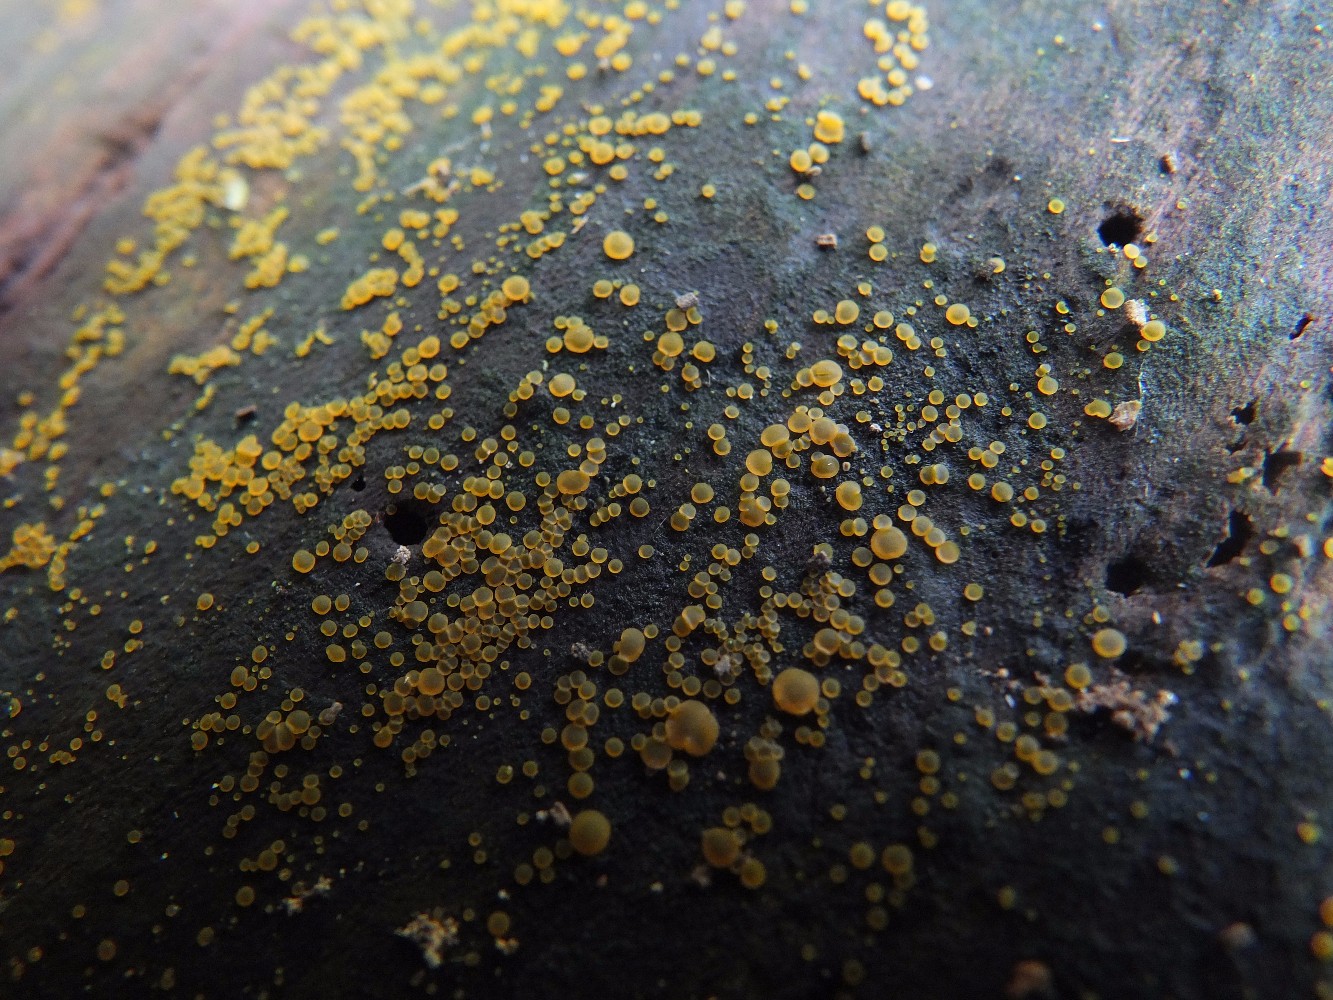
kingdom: Fungi
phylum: Basidiomycota
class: Dacrymycetes
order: Dacrymycetales
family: Dacrymycetaceae
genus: Dacrymyces
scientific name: Dacrymyces minor
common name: lille tåresvamp
